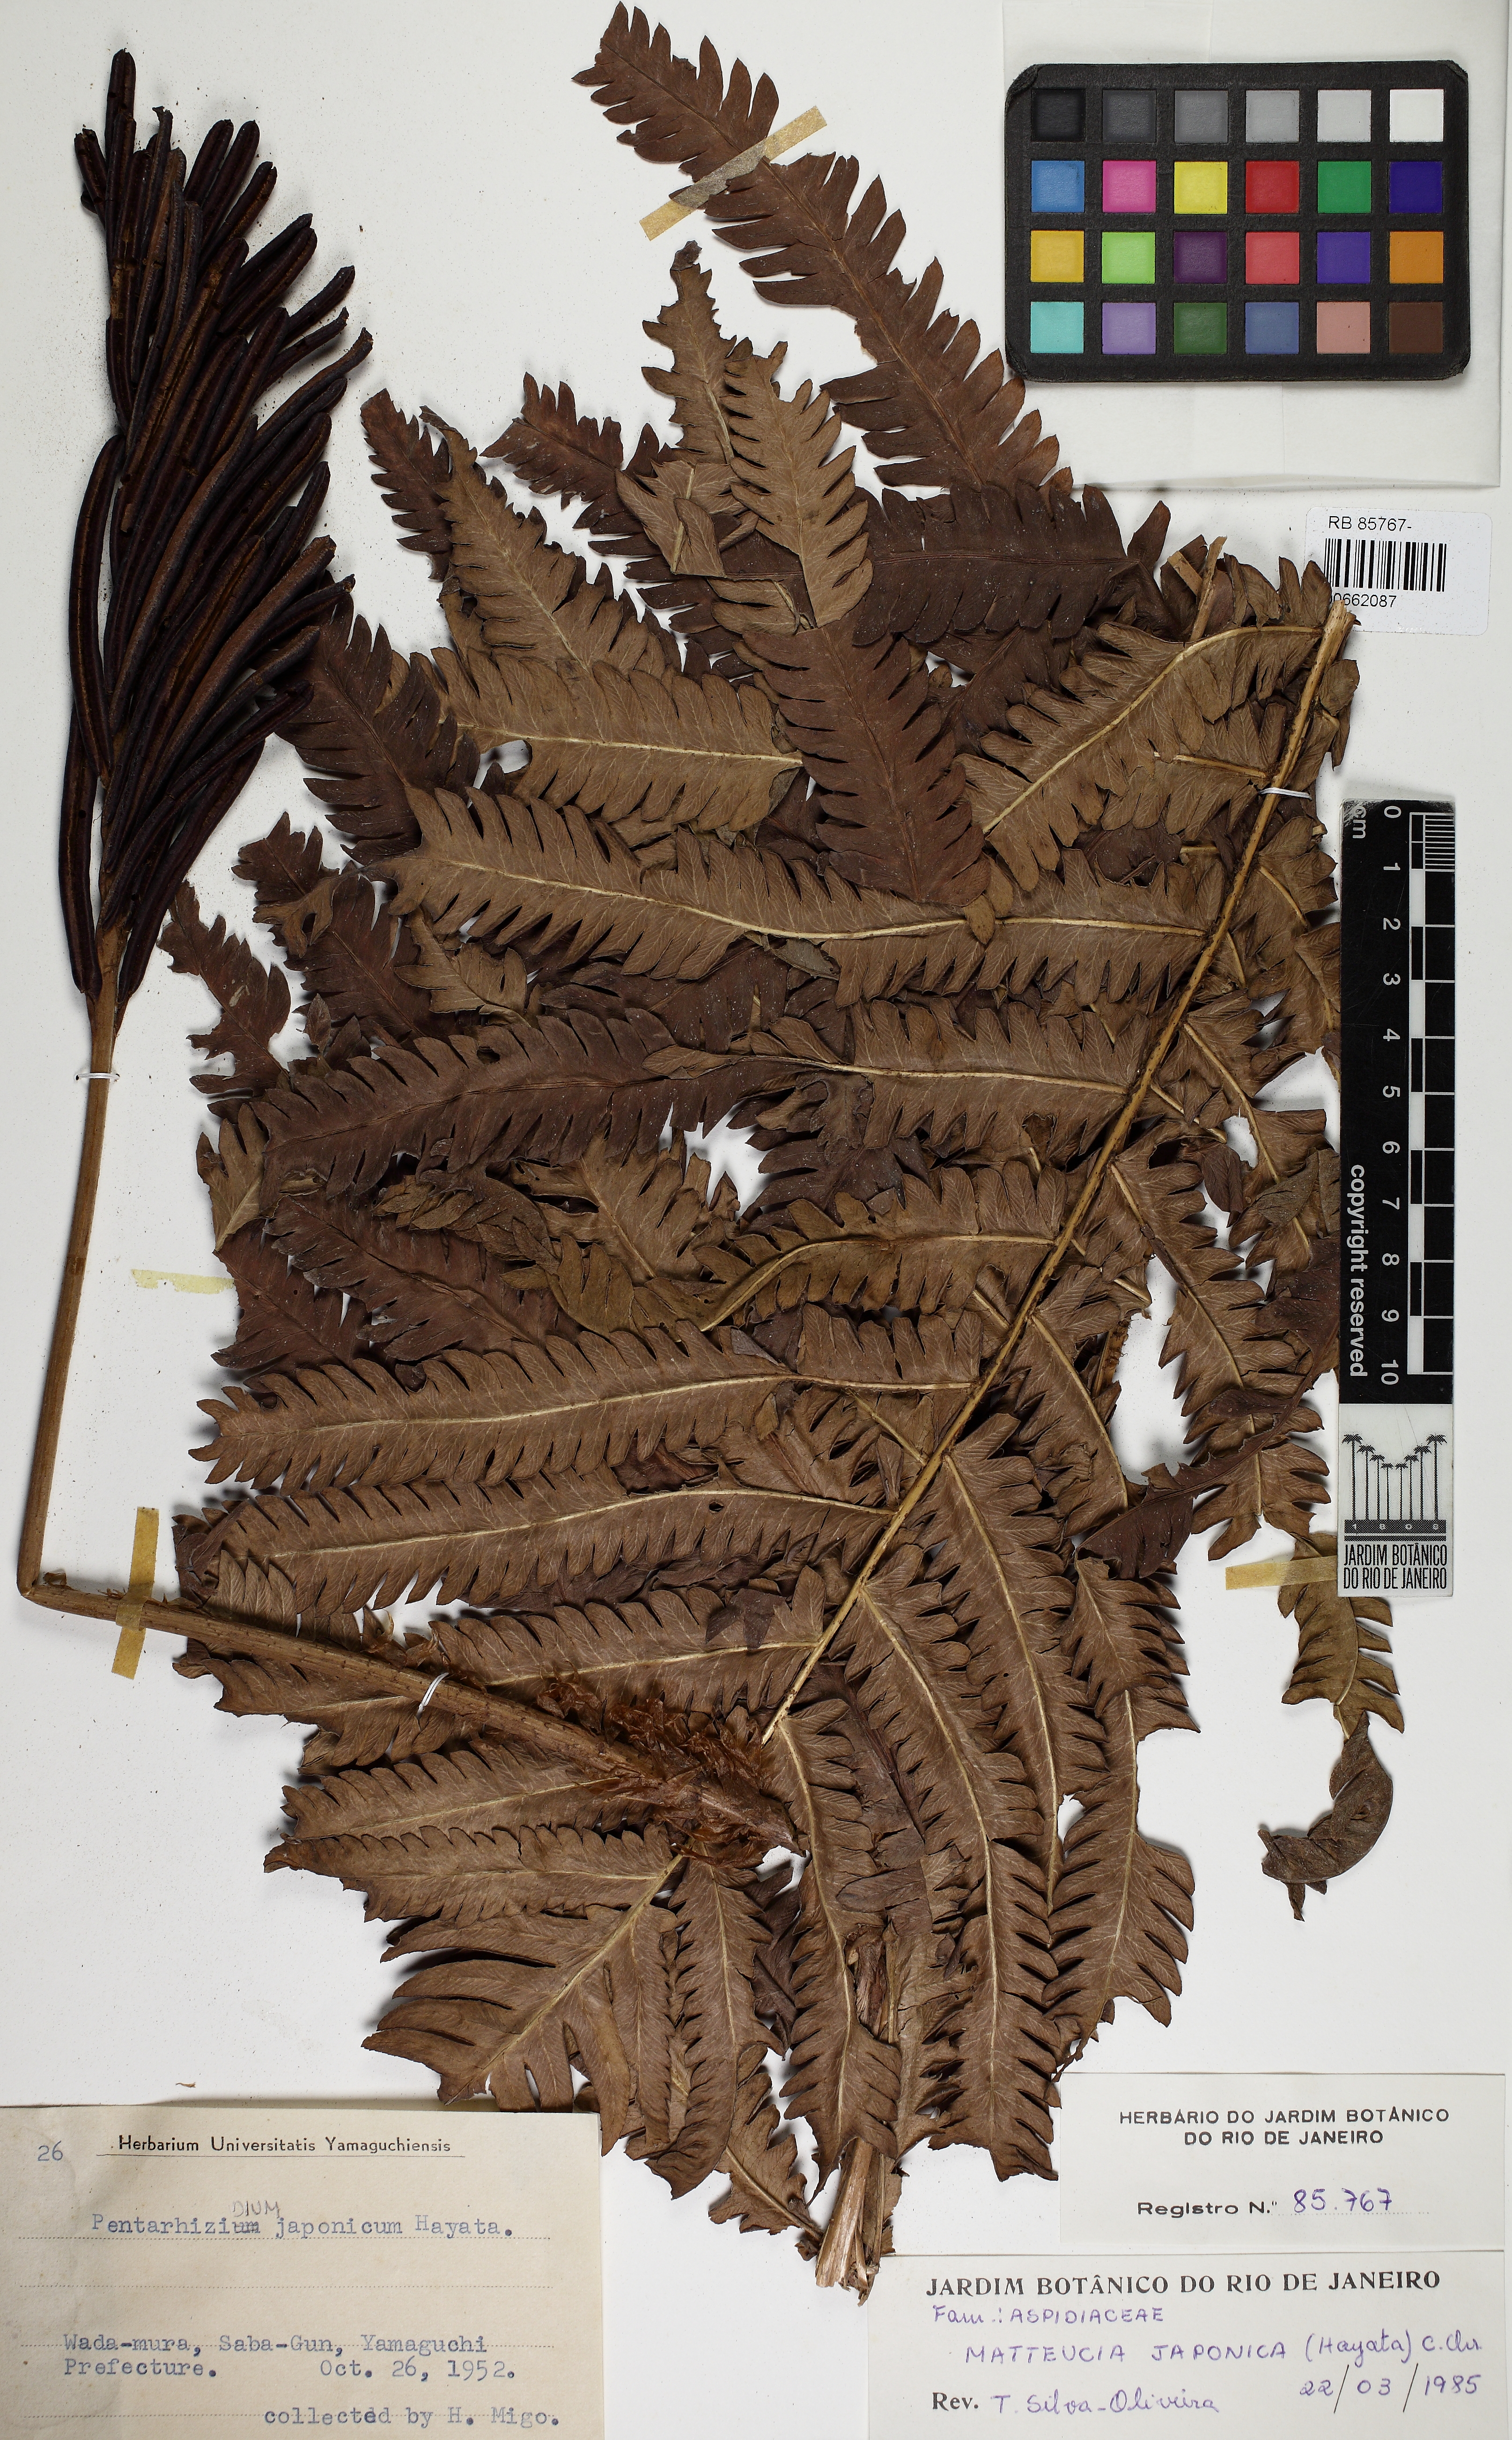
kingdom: Plantae
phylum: Tracheophyta
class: Polypodiopsida
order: Polypodiales
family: Onocleaceae
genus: Pentarhizidium
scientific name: Pentarhizidium orientale
